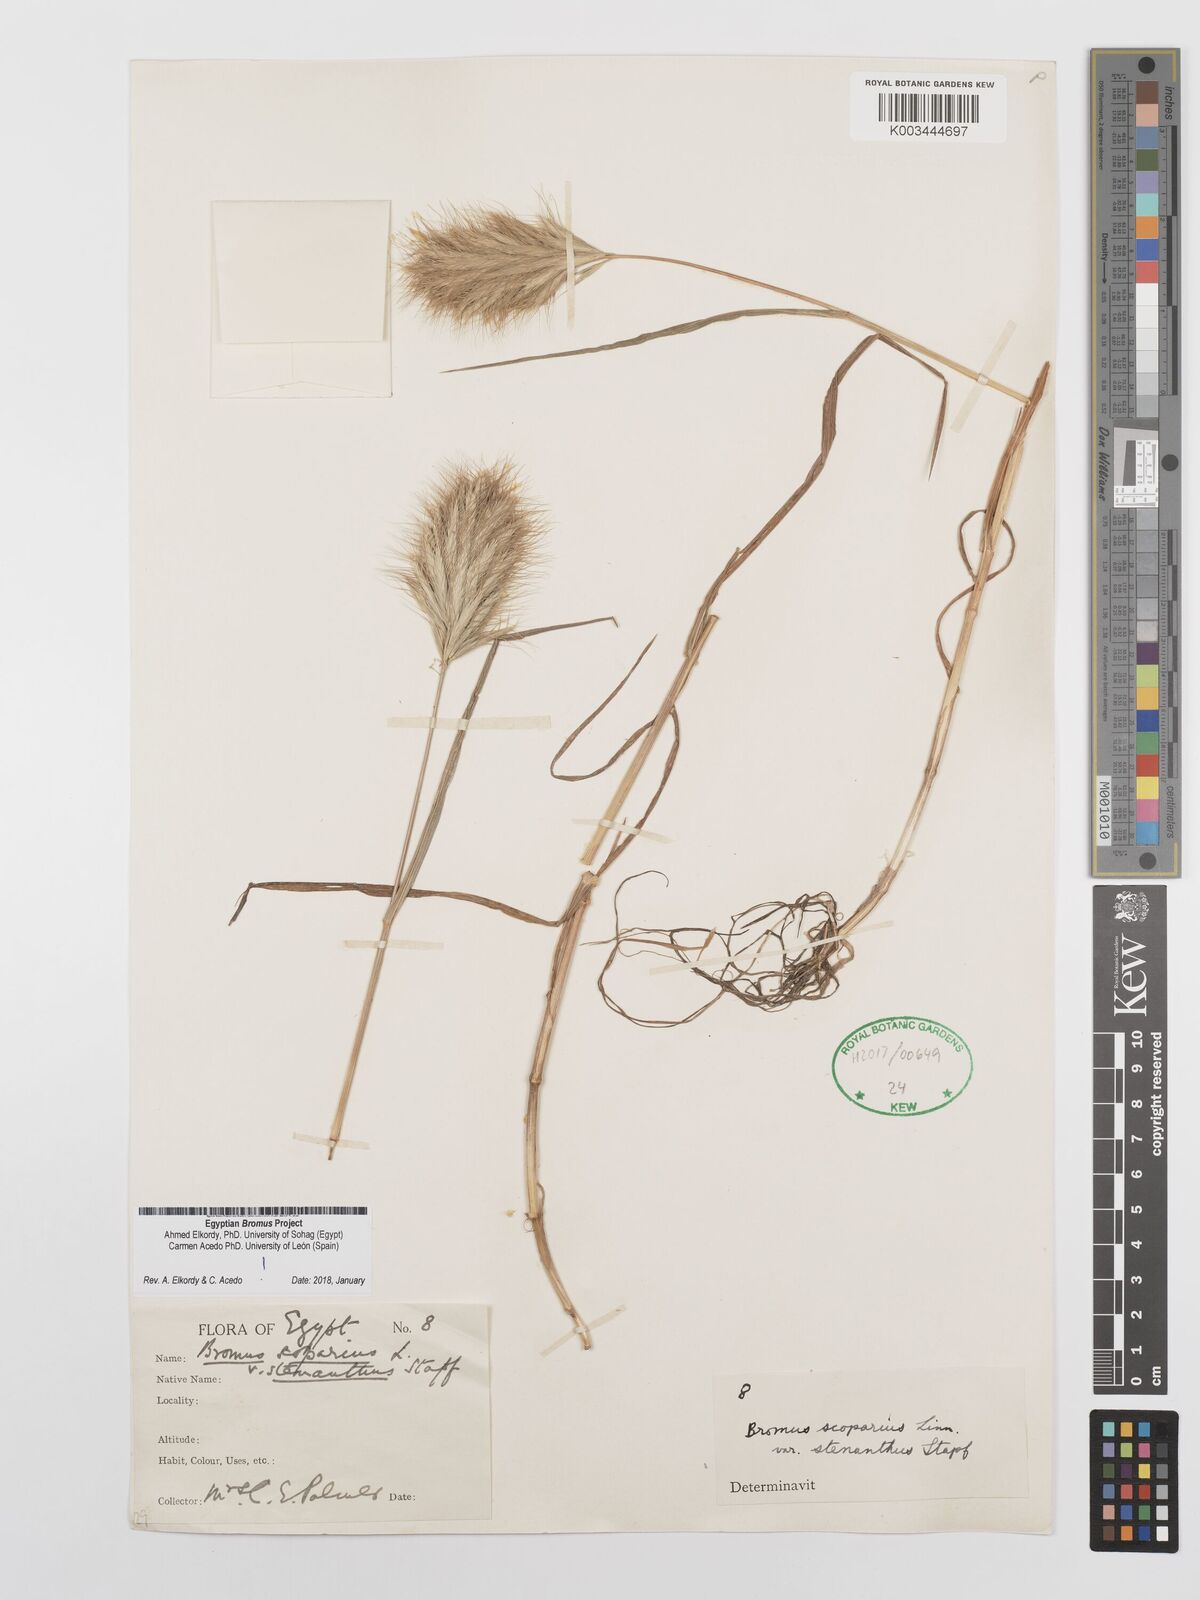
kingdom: Plantae
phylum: Tracheophyta
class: Liliopsida
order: Poales
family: Poaceae
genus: Bromus
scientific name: Bromus scoparius
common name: Broom brome
